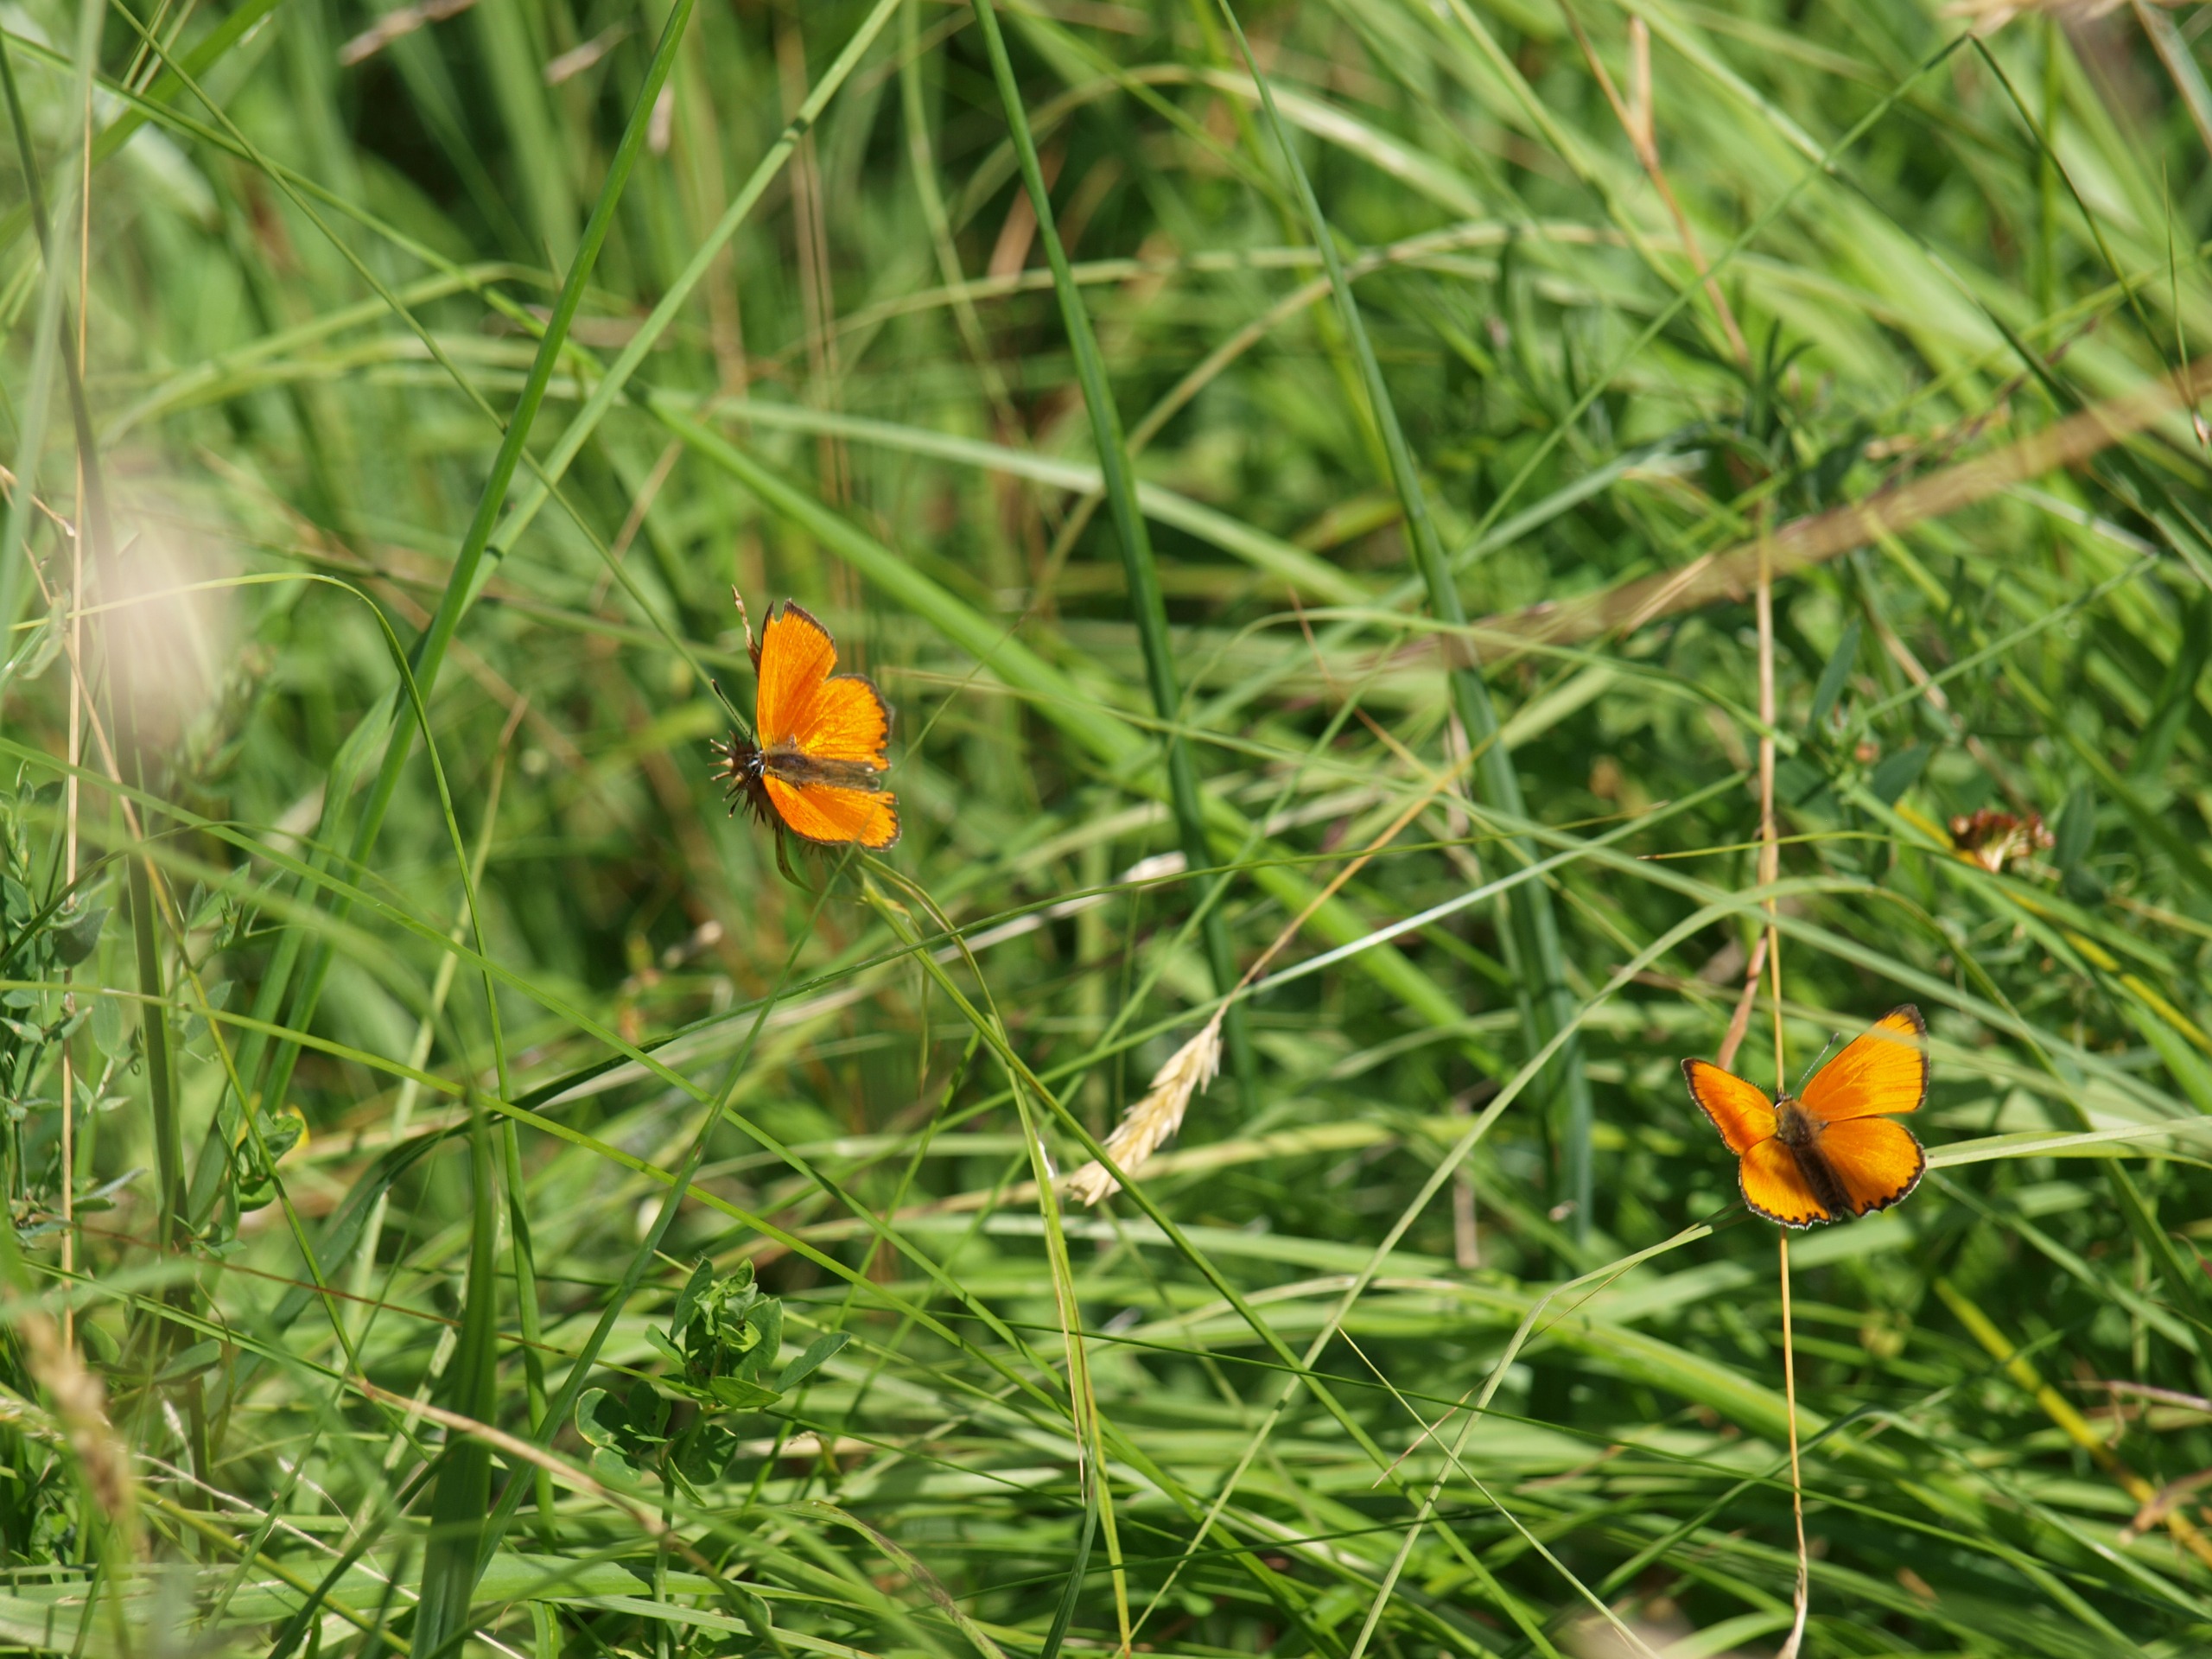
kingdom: Animalia
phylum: Arthropoda
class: Insecta
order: Lepidoptera
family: Lycaenidae
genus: Lycaena
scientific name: Lycaena virgaureae
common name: Dukatsommerfugl
